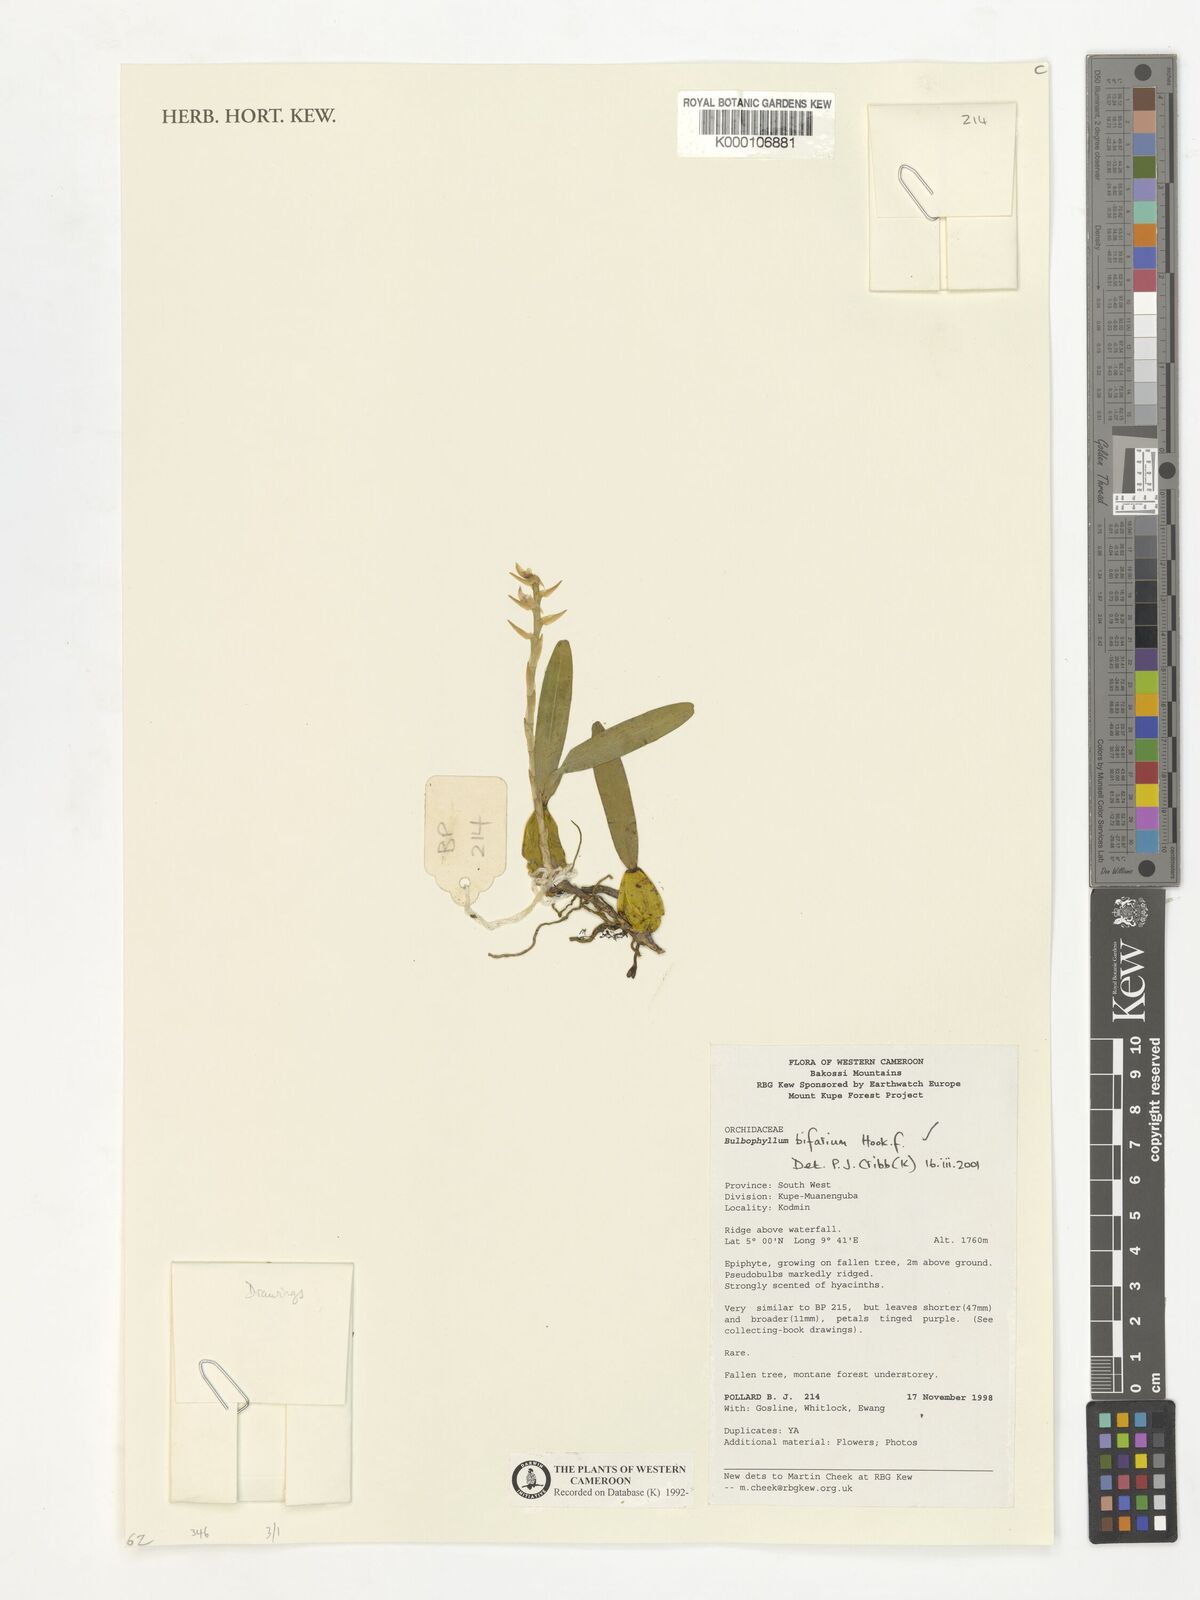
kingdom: Plantae
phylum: Tracheophyta
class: Liliopsida
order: Asparagales
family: Orchidaceae
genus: Bulbophyllum
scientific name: Bulbophyllum bifarium
